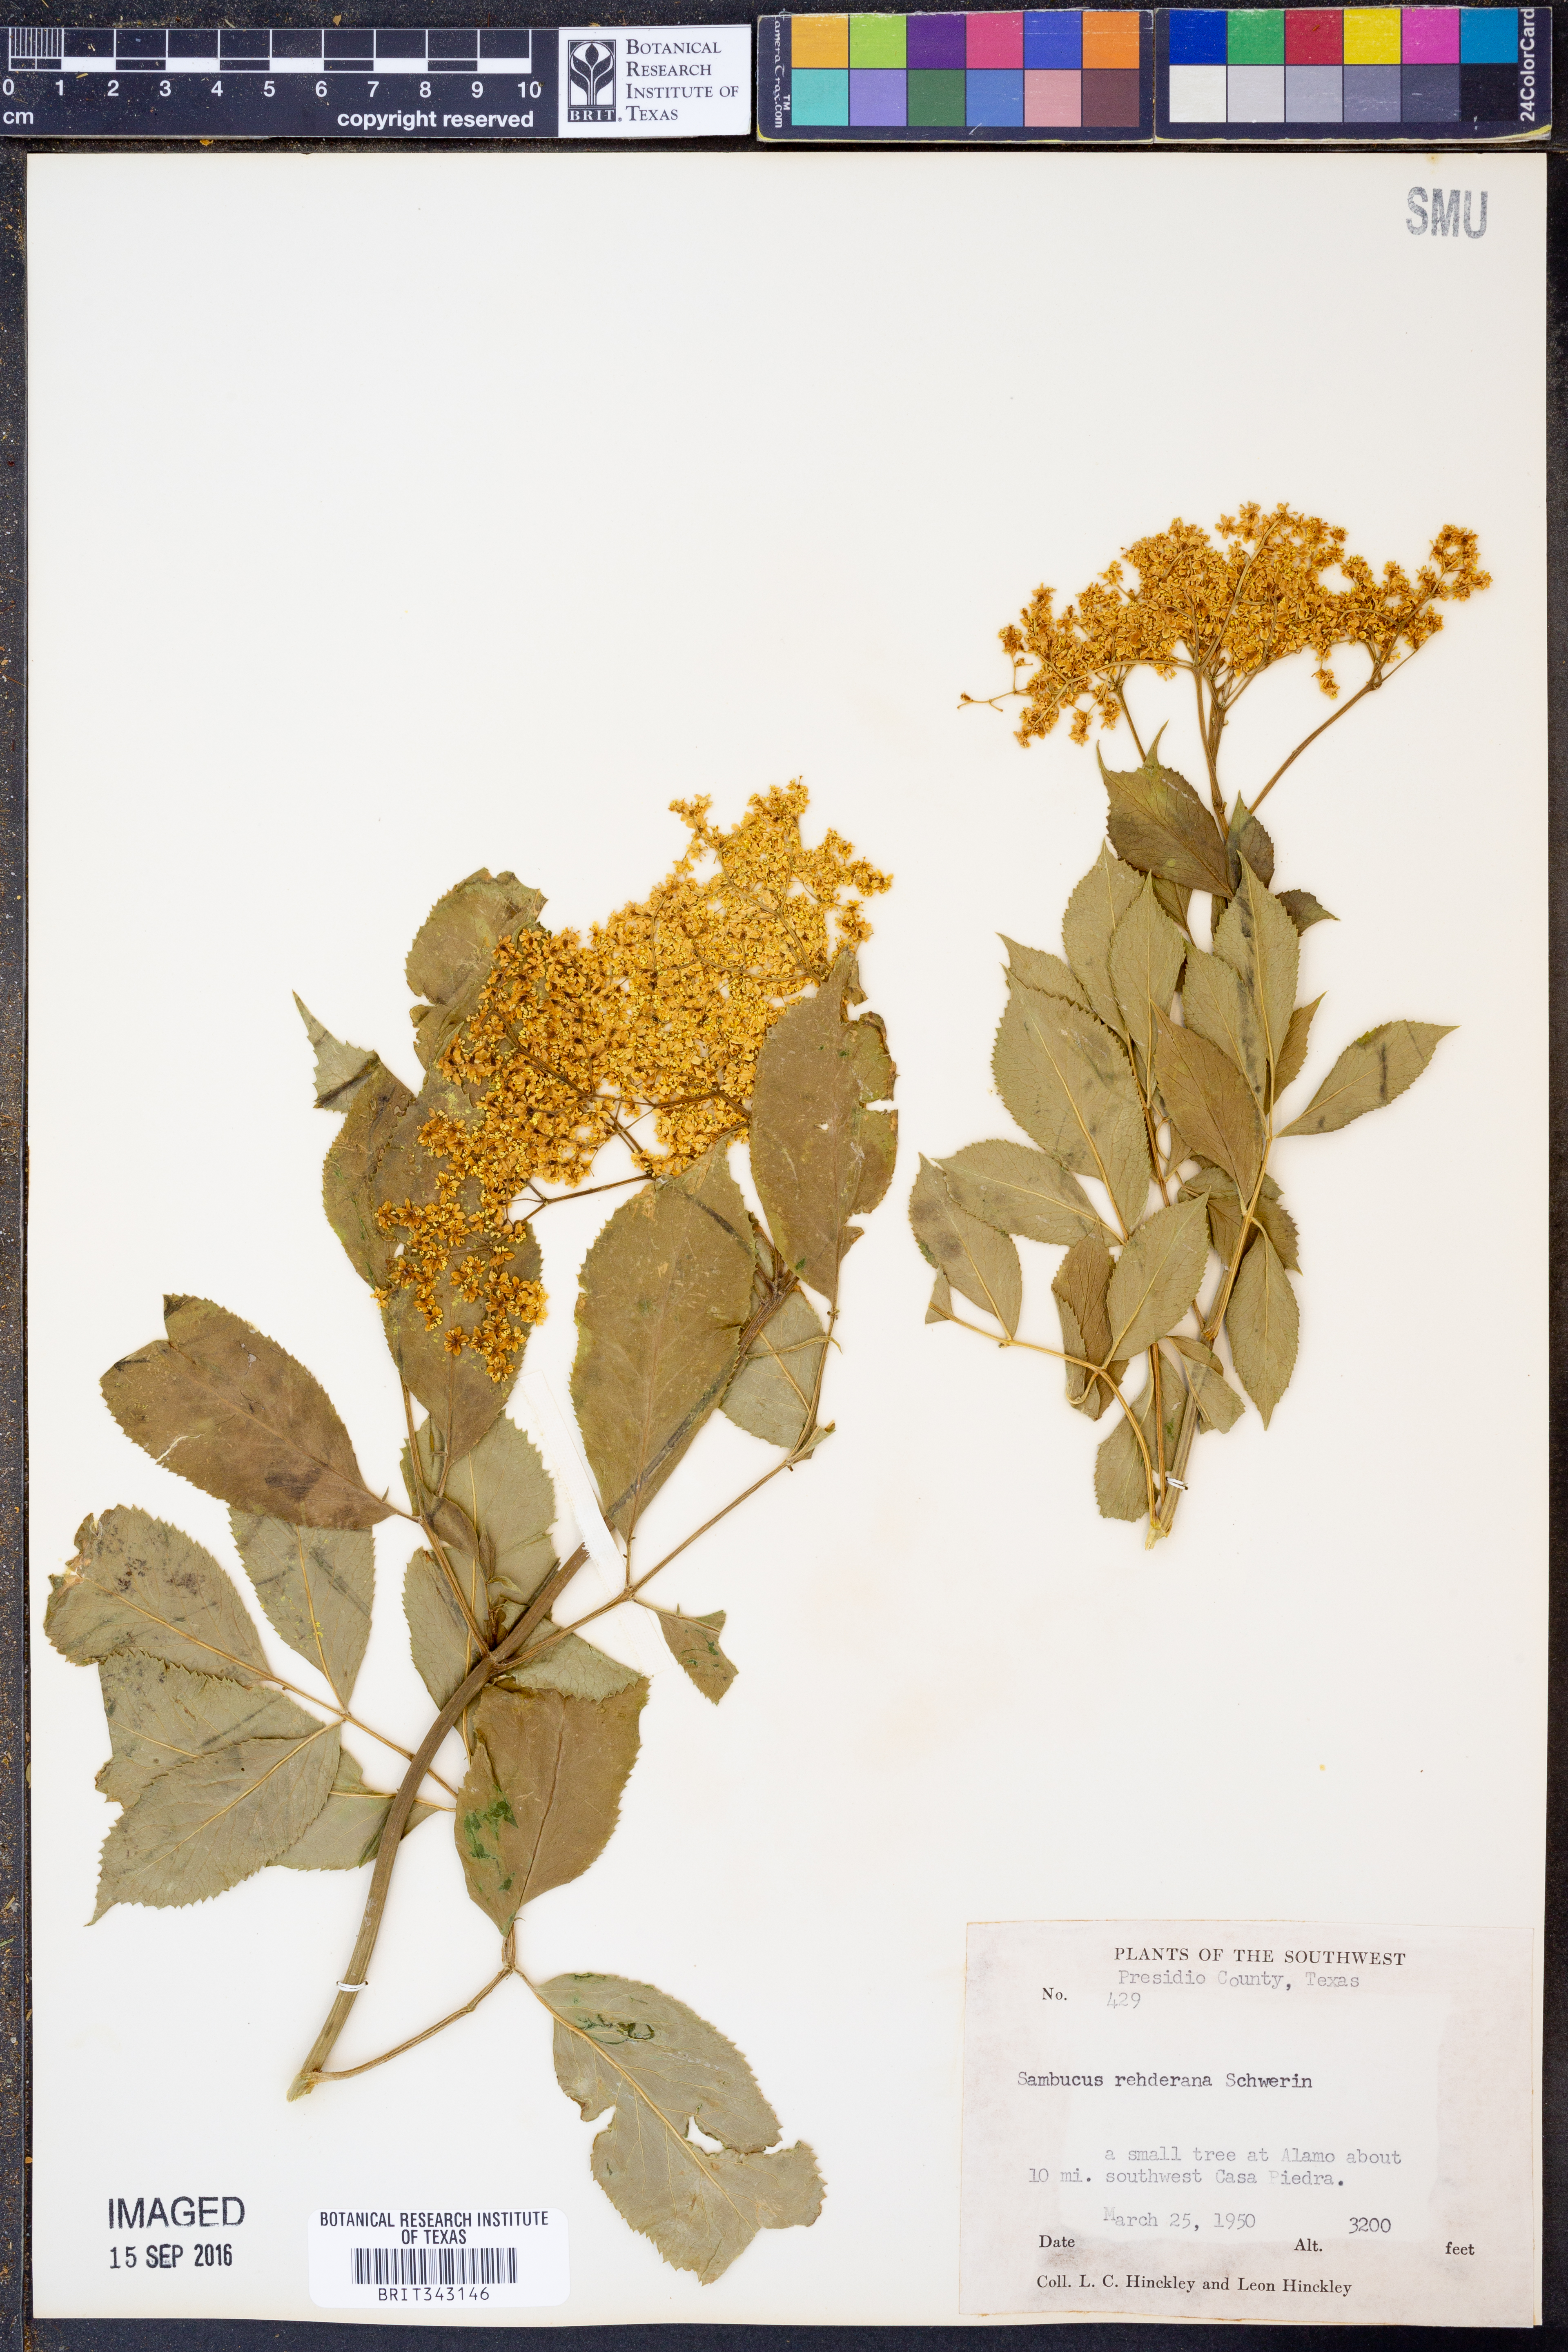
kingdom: Plantae
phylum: Tracheophyta
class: Magnoliopsida
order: Dipsacales
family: Viburnaceae
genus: Sambucus
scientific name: Sambucus canadensis
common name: American elder
